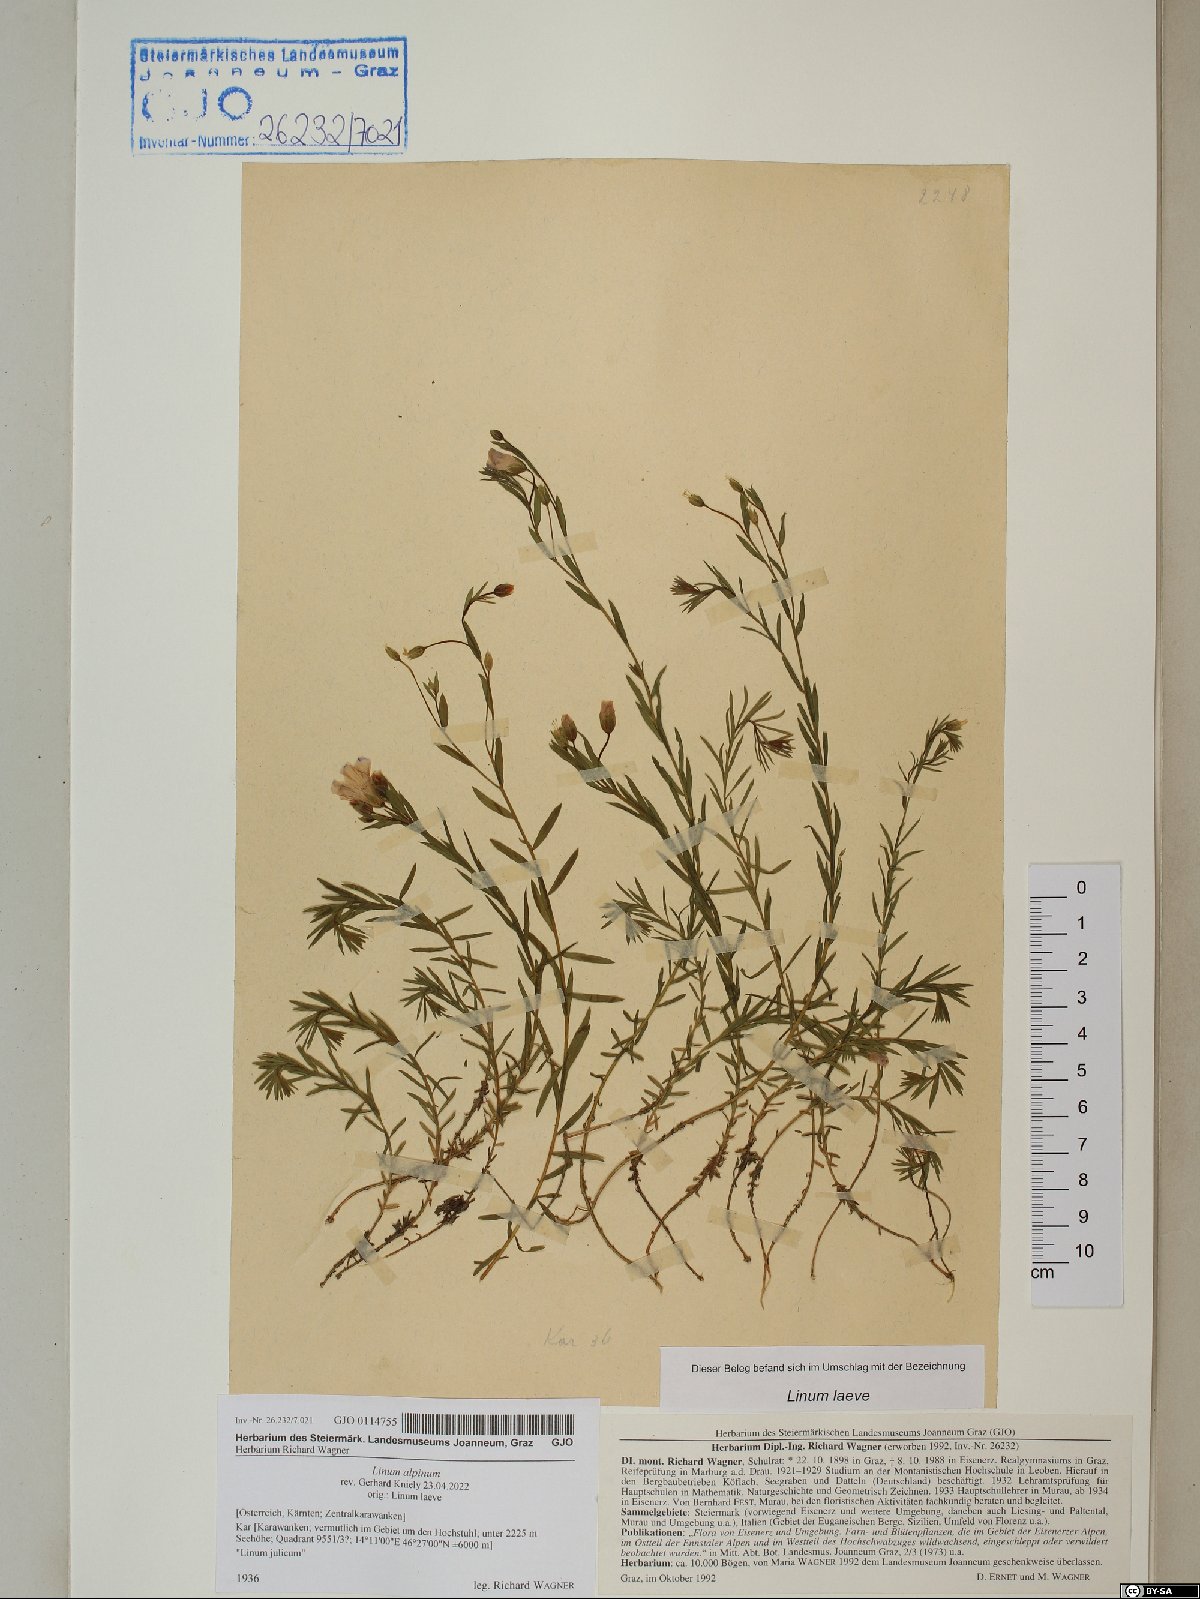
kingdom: Plantae
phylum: Tracheophyta
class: Magnoliopsida
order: Malpighiales
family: Linaceae
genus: Linum
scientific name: Linum alpinum
